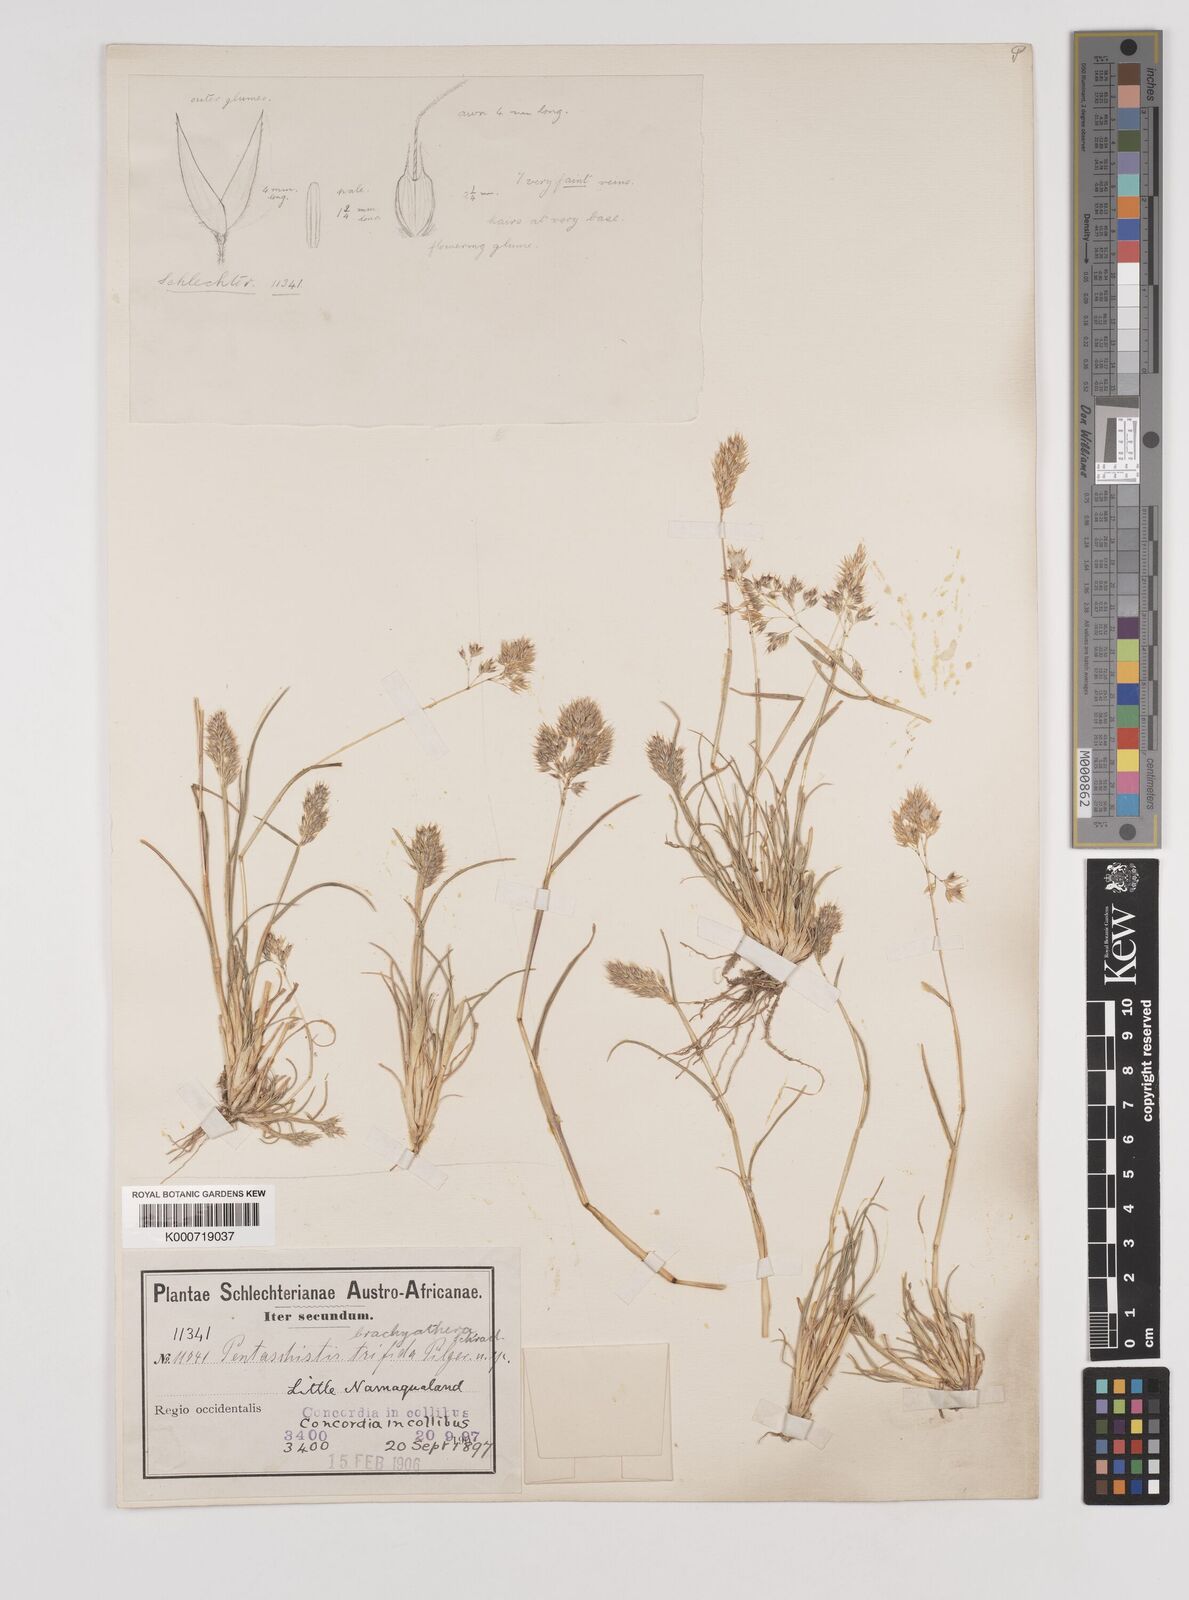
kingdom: Plantae
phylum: Tracheophyta
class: Liliopsida
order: Poales
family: Poaceae
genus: Pentameris
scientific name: Pentameris pallida
